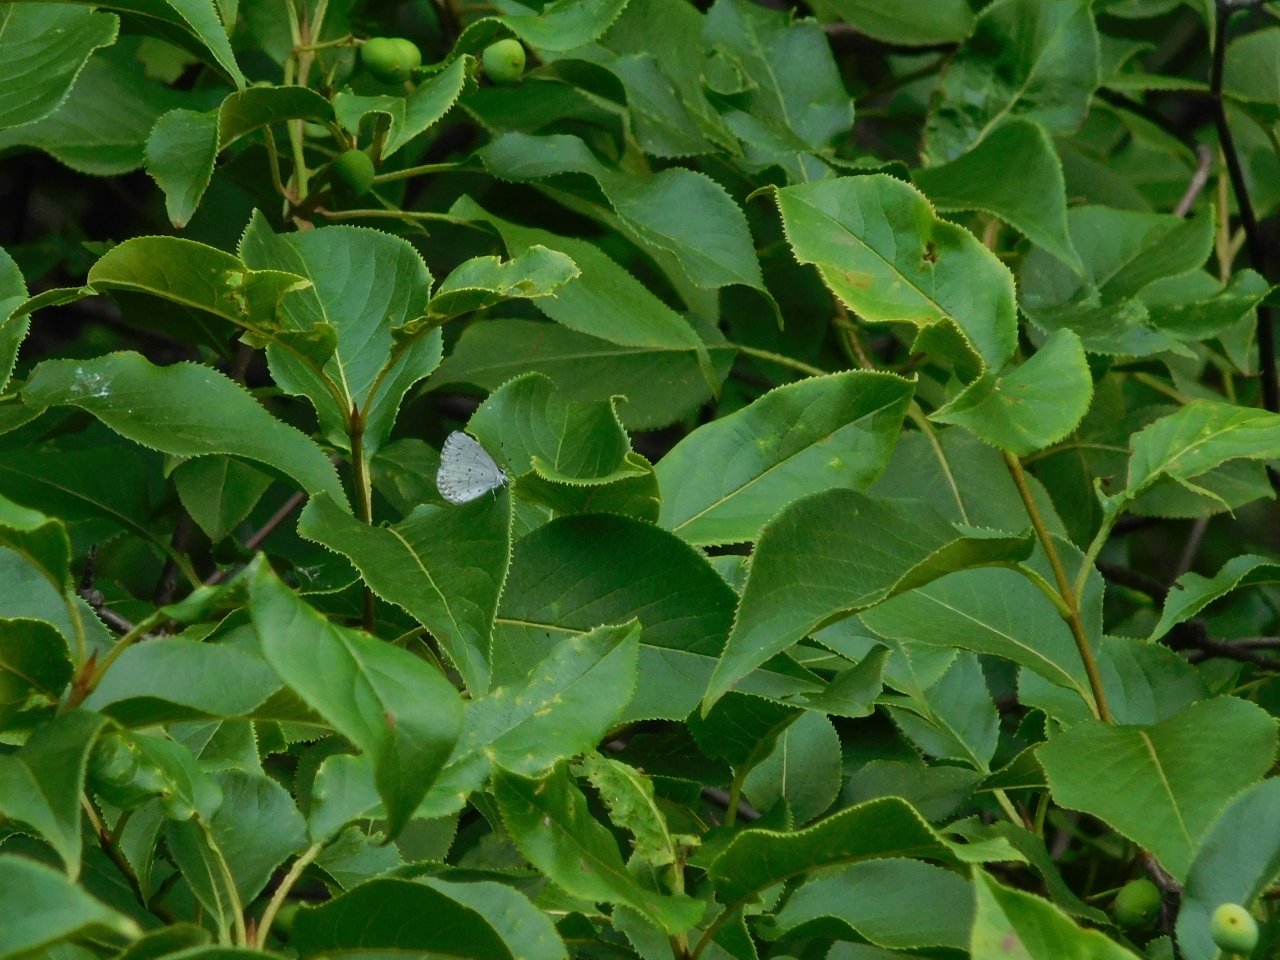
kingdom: Animalia
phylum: Arthropoda
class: Insecta
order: Lepidoptera
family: Lycaenidae
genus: Celastrina
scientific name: Celastrina lucia
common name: Northern Spring Azure
